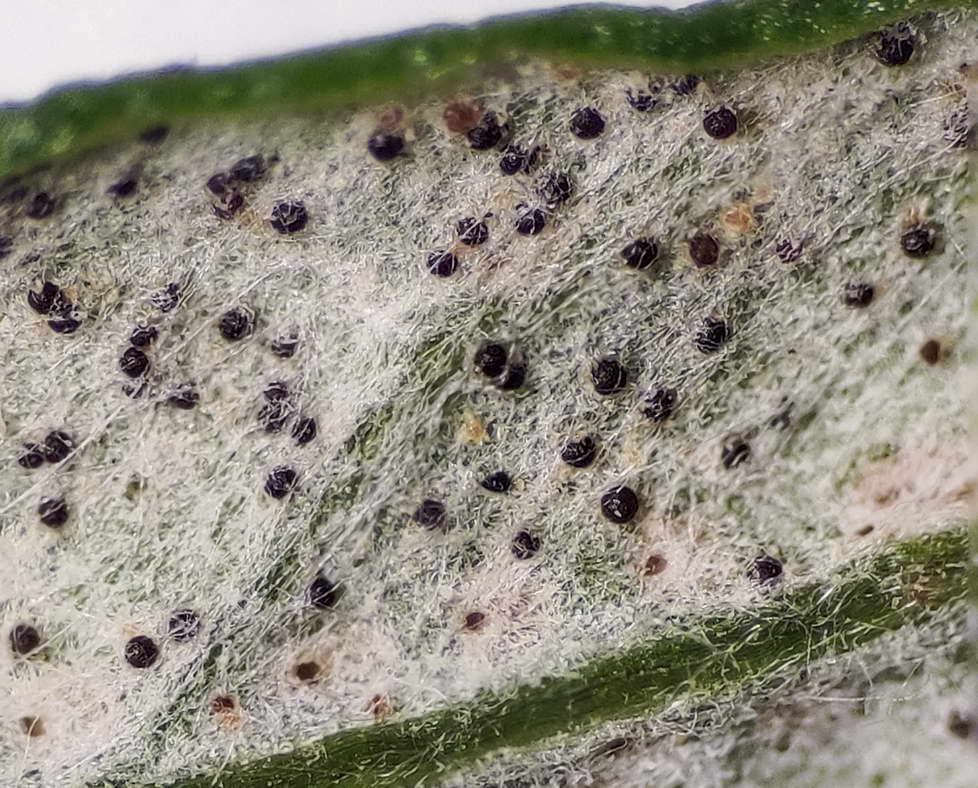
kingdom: Fungi
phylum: Ascomycota
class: Leotiomycetes
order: Helotiales
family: Erysiphaceae
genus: Golovinomyces
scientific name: Golovinomyces artemisiae
